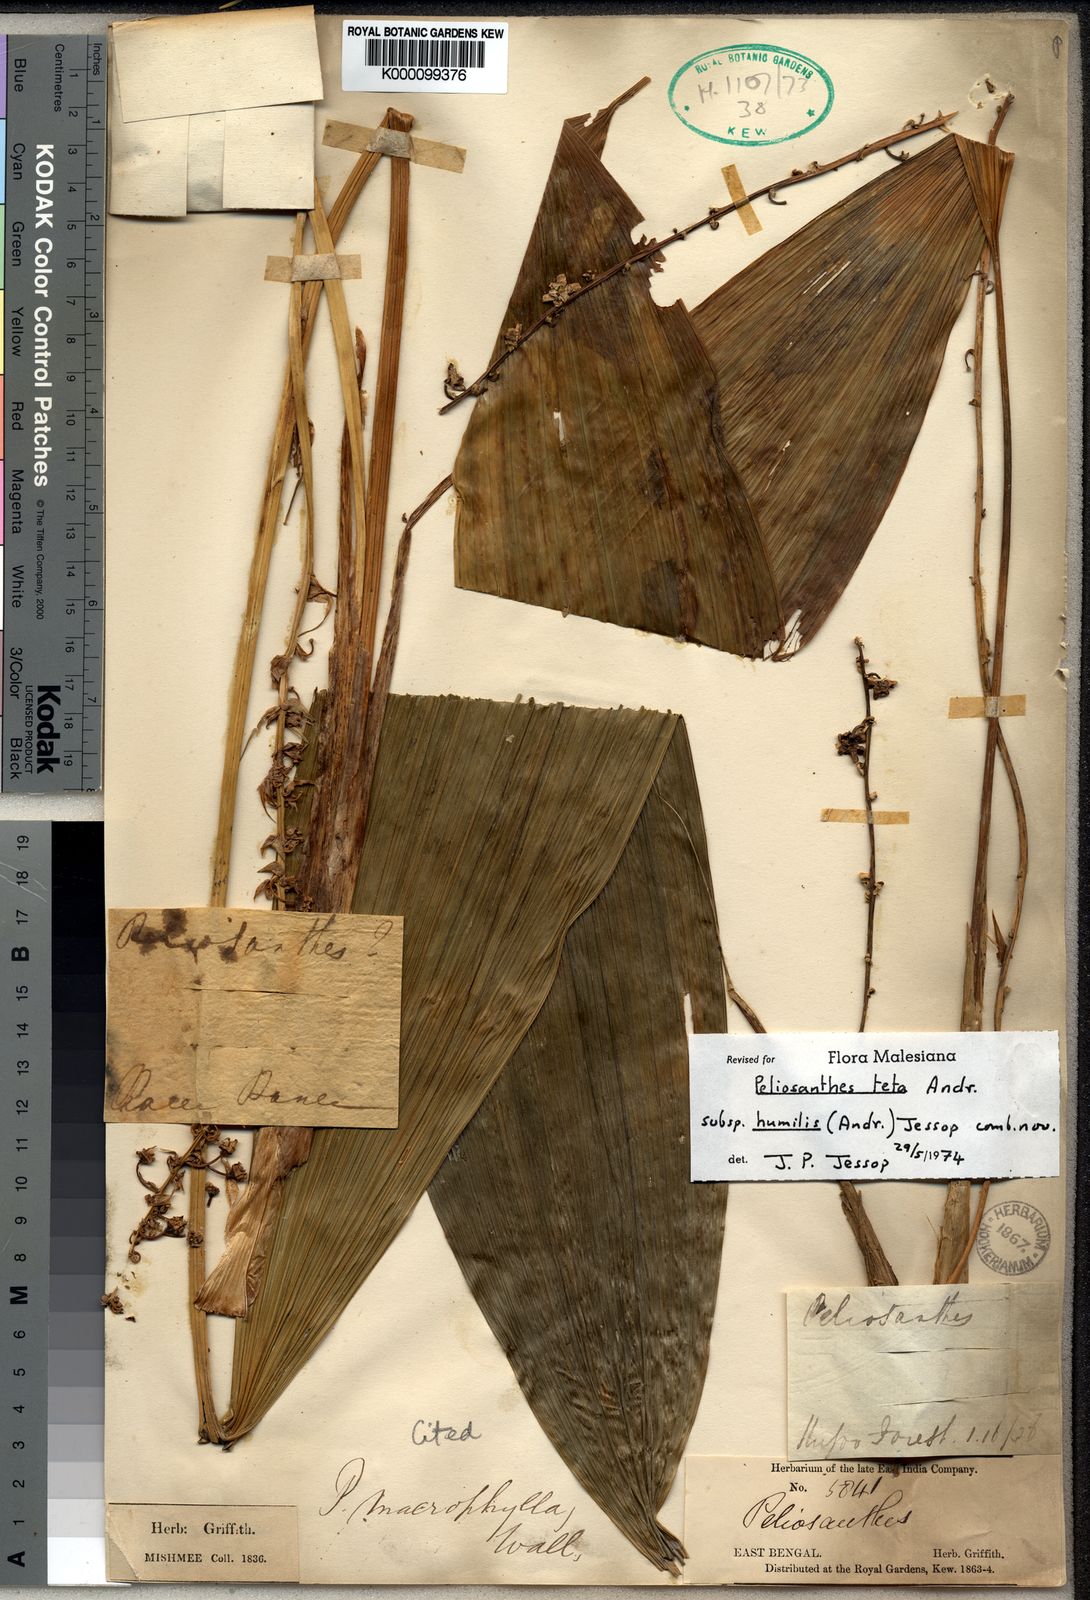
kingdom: Plantae
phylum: Tracheophyta
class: Liliopsida
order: Asparagales
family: Asparagaceae
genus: Peliosanthes
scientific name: Peliosanthes teta
